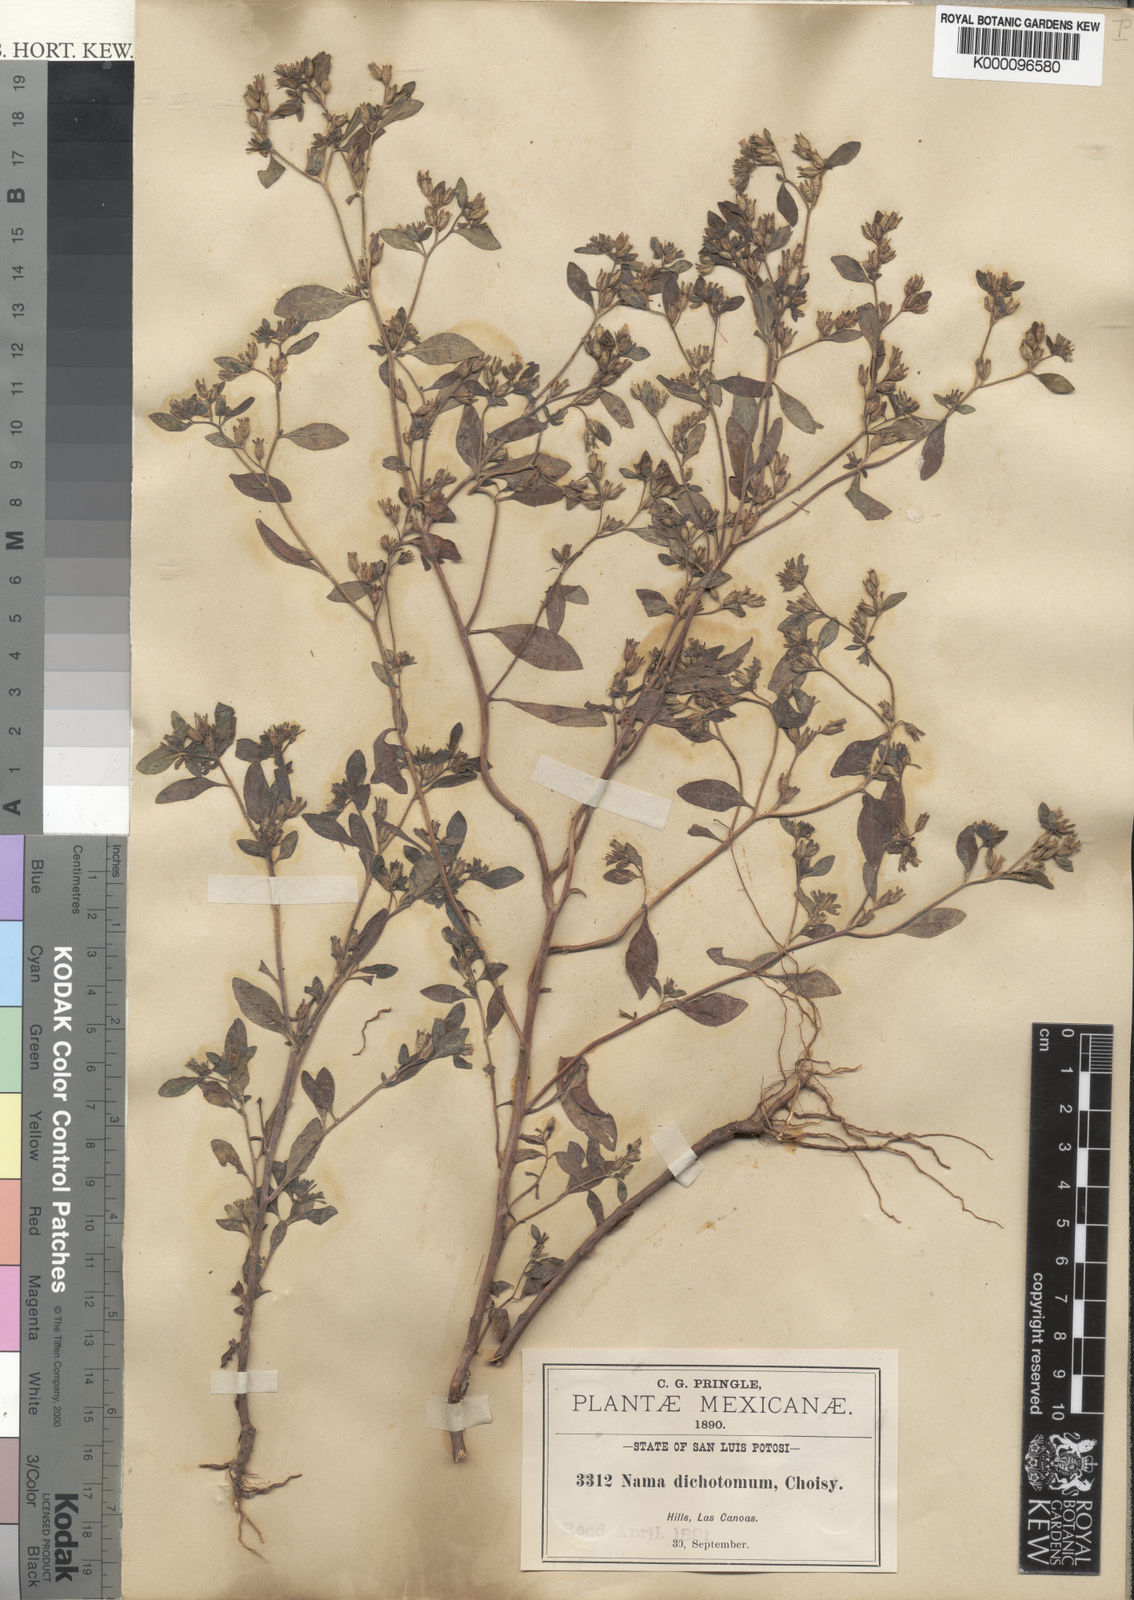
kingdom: Plantae
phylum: Tracheophyta
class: Magnoliopsida
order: Boraginales
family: Namaceae
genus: Nama
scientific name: Nama dichotoma
